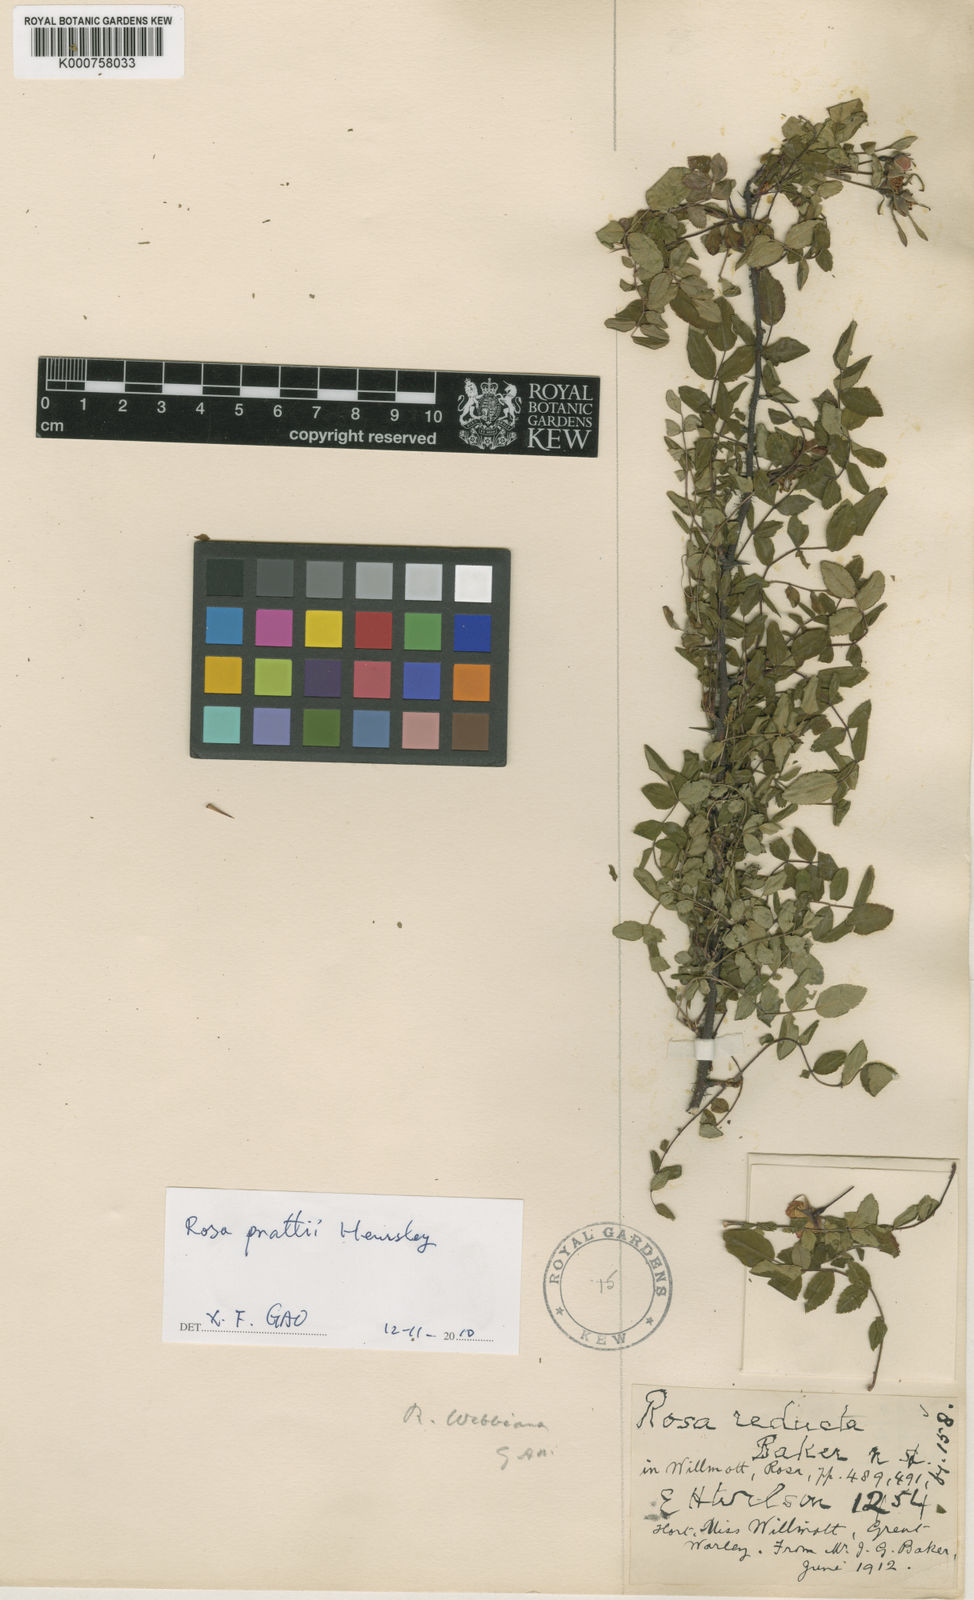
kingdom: Plantae
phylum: Tracheophyta
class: Magnoliopsida
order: Rosales
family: Rosaceae
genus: Rosa
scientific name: Rosa multibracteata
